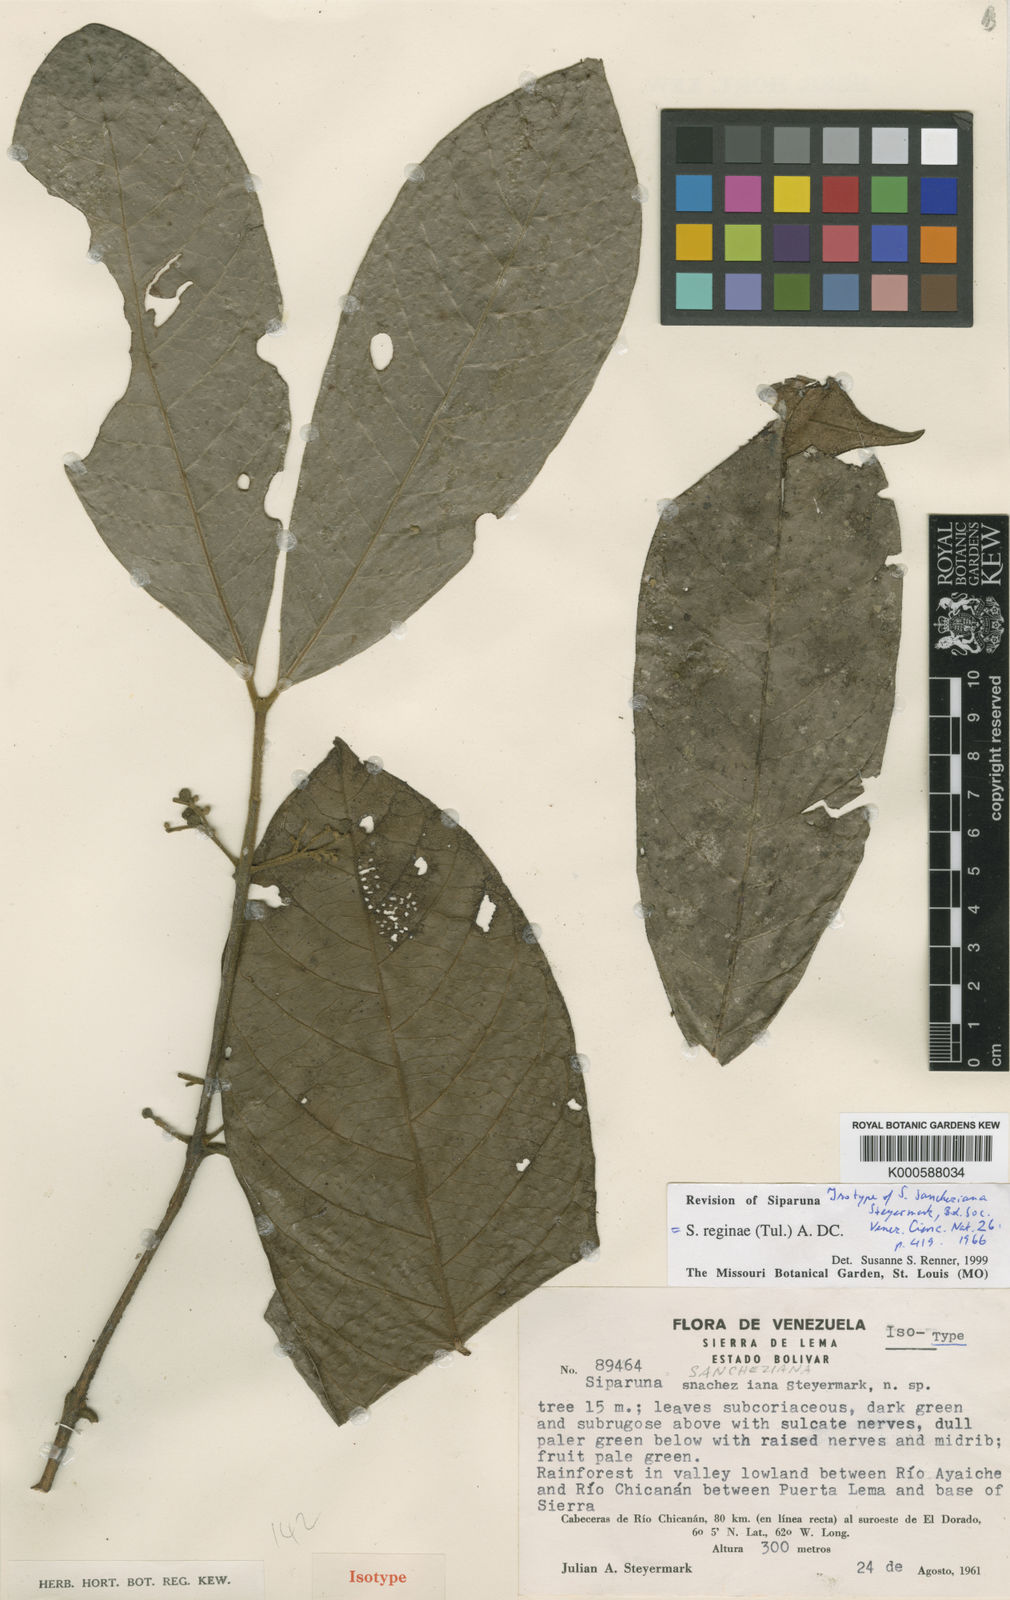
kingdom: Plantae
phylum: Tracheophyta
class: Magnoliopsida
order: Laurales
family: Siparunaceae
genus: Siparuna
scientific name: Siparuna reginae
